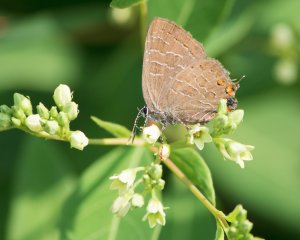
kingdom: Animalia
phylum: Arthropoda
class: Insecta
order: Lepidoptera
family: Lycaenidae
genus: Satyrium
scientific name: Satyrium liparops
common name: Striped Hairstreak
